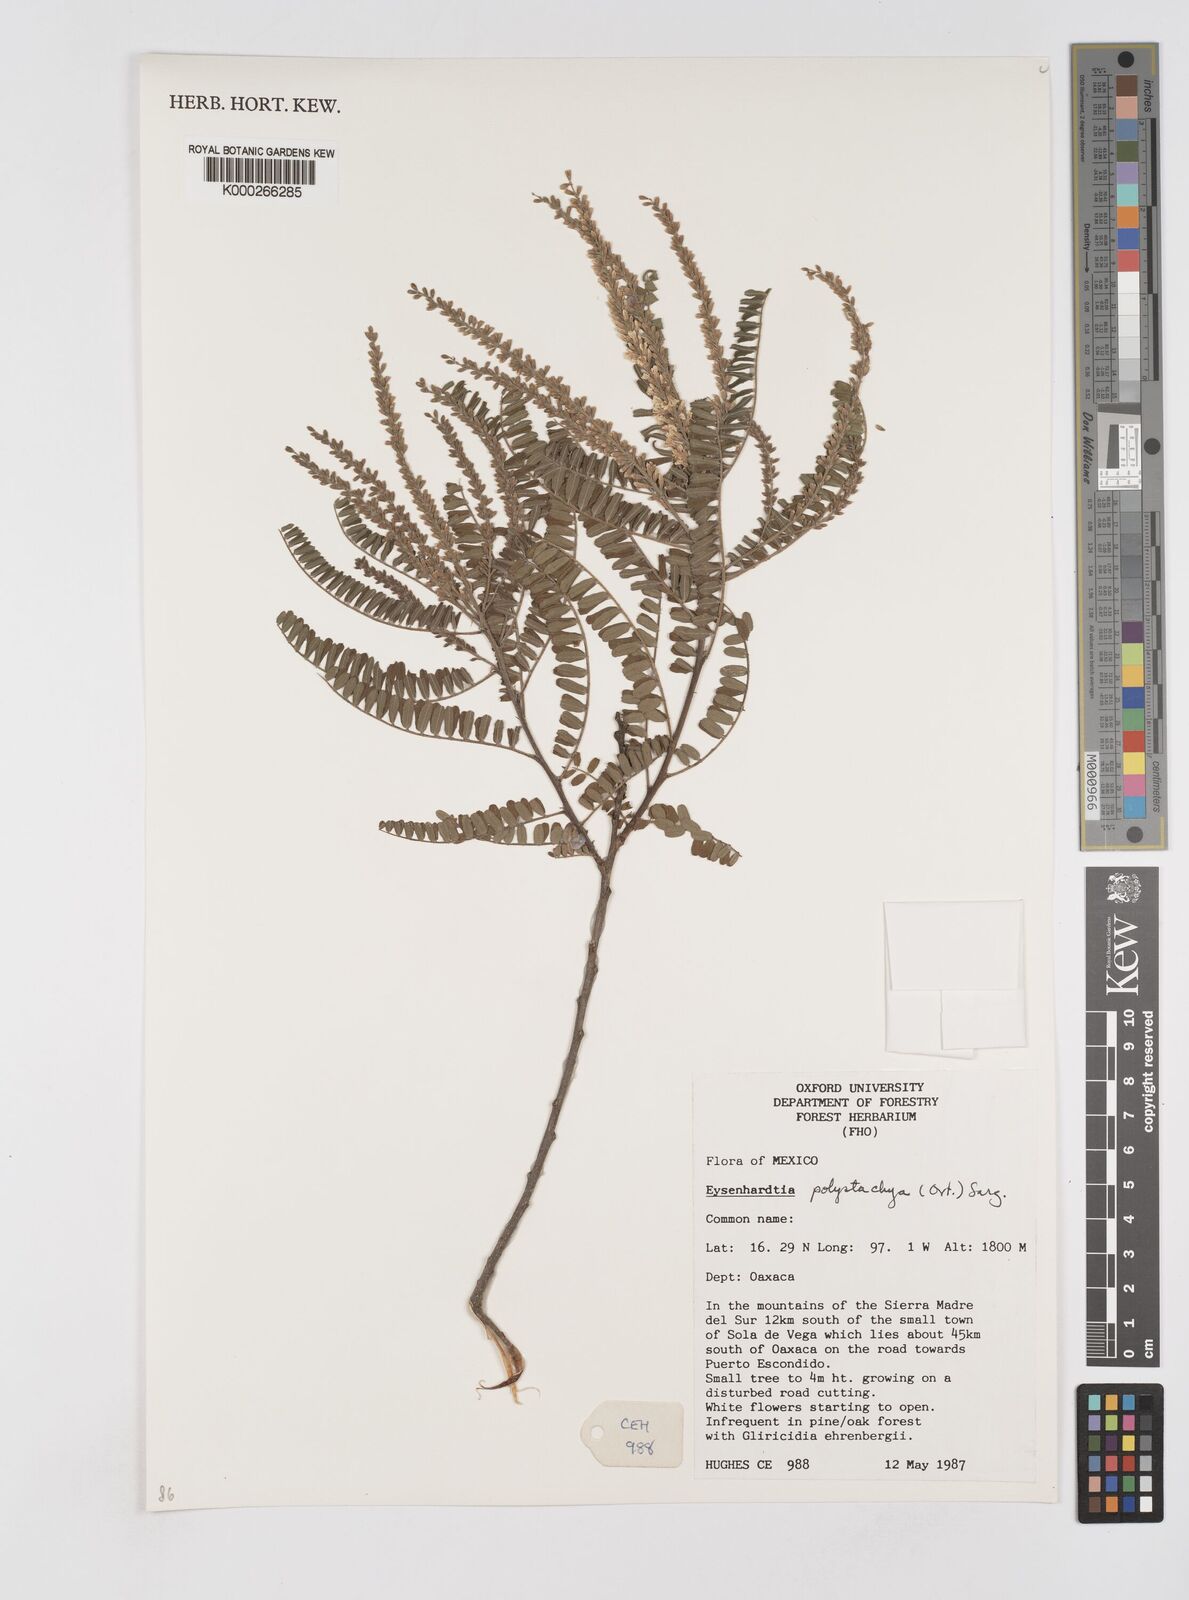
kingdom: Plantae
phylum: Tracheophyta
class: Magnoliopsida
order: Fabales
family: Fabaceae
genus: Eysenhardtia
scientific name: Eysenhardtia polystachya
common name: Kidneywood
